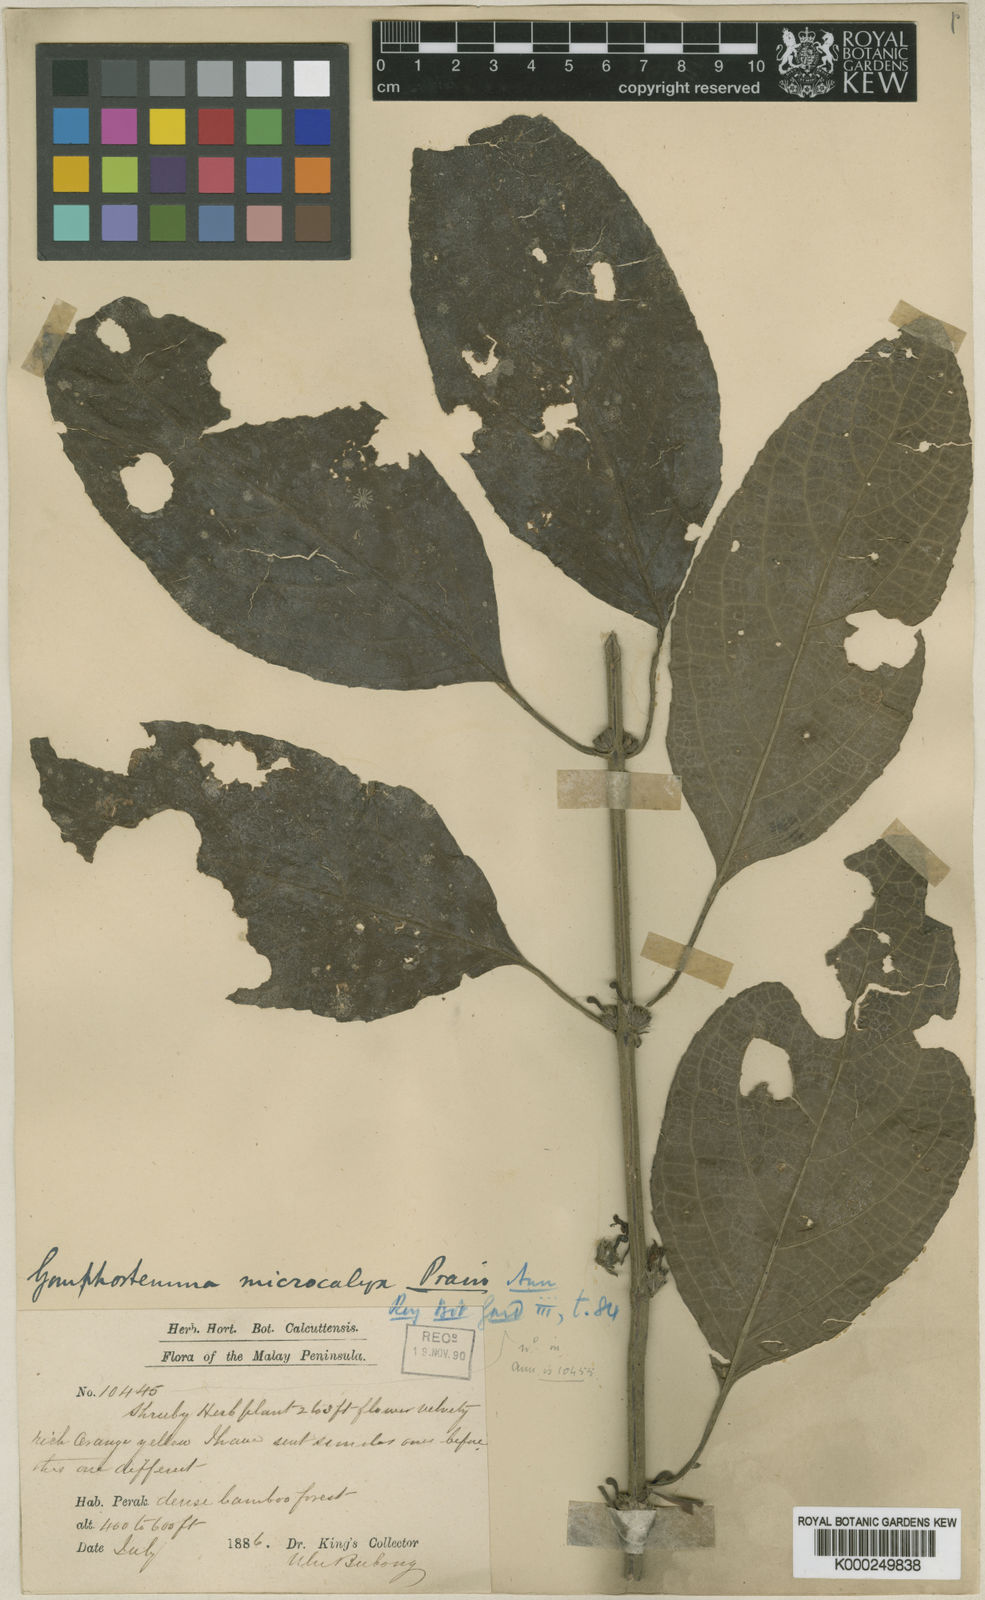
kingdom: Plantae
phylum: Tracheophyta
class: Magnoliopsida
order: Lamiales
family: Lamiaceae
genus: Gomphostemma
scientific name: Gomphostemma microcalyx
